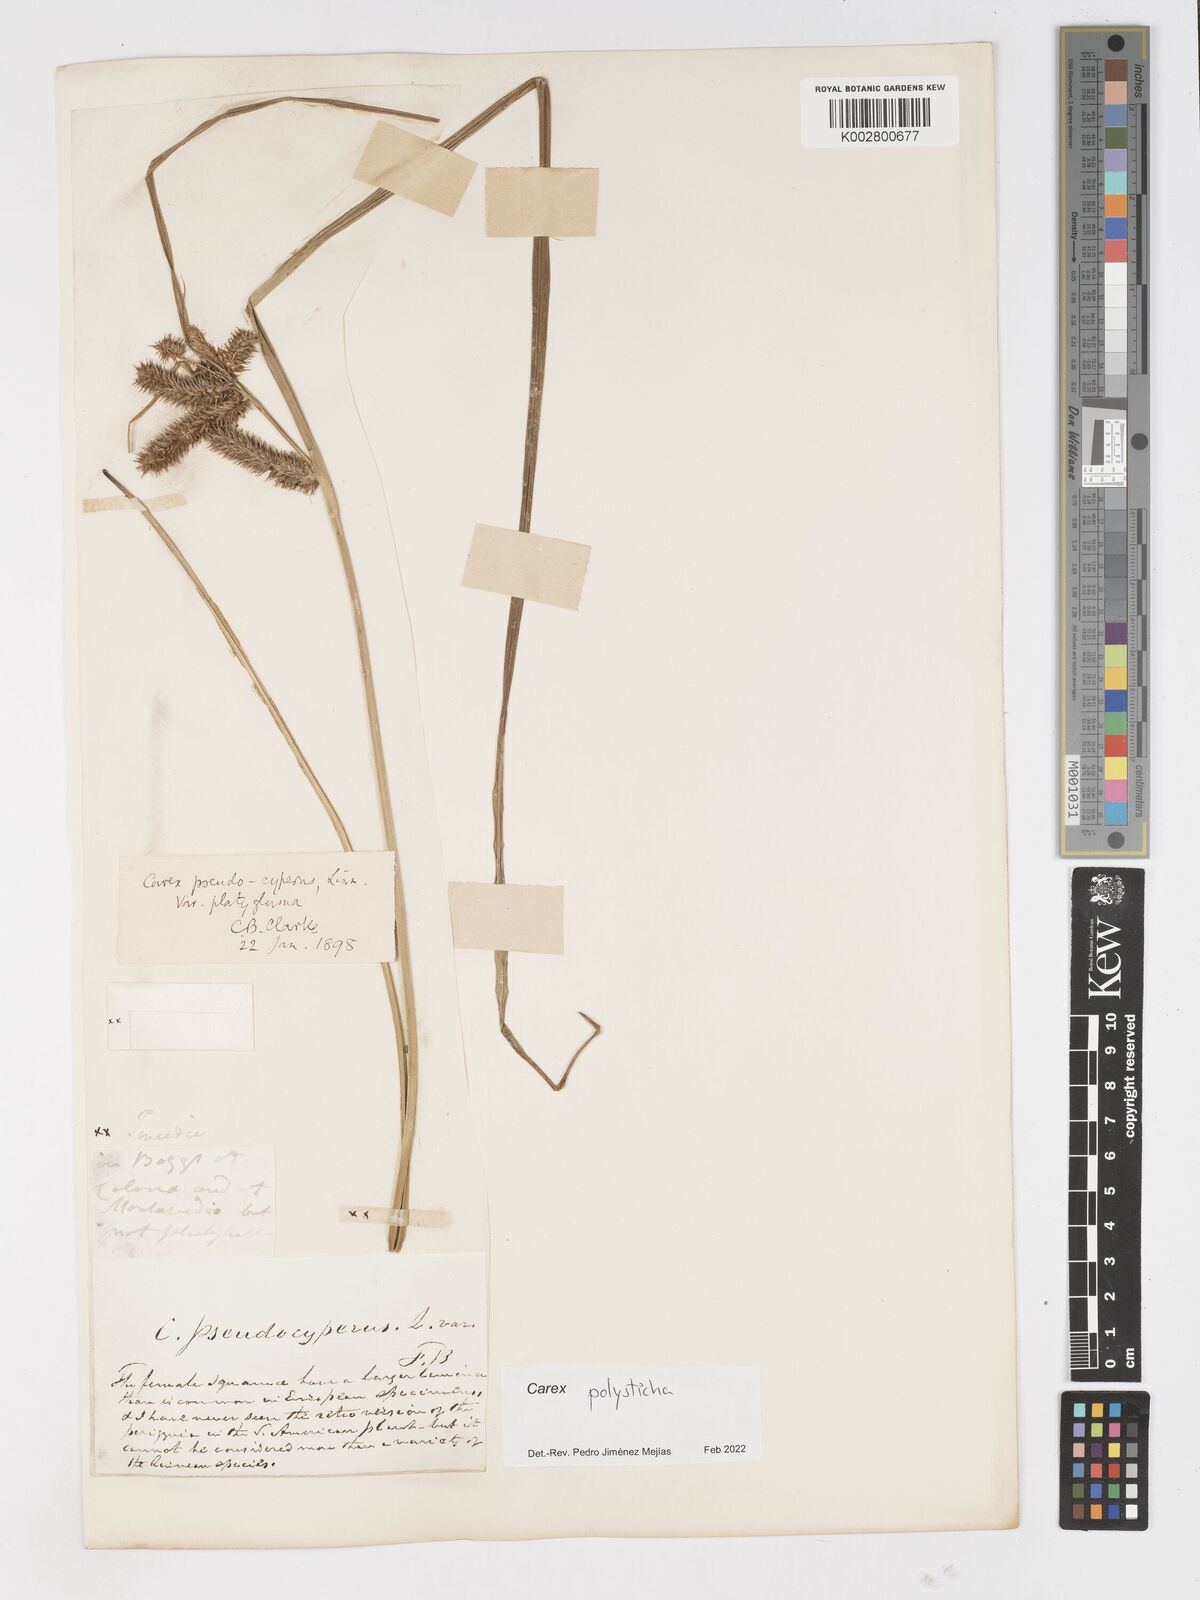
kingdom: Plantae
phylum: Tracheophyta
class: Liliopsida
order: Poales
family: Cyperaceae
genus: Carex
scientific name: Carex excelsa
